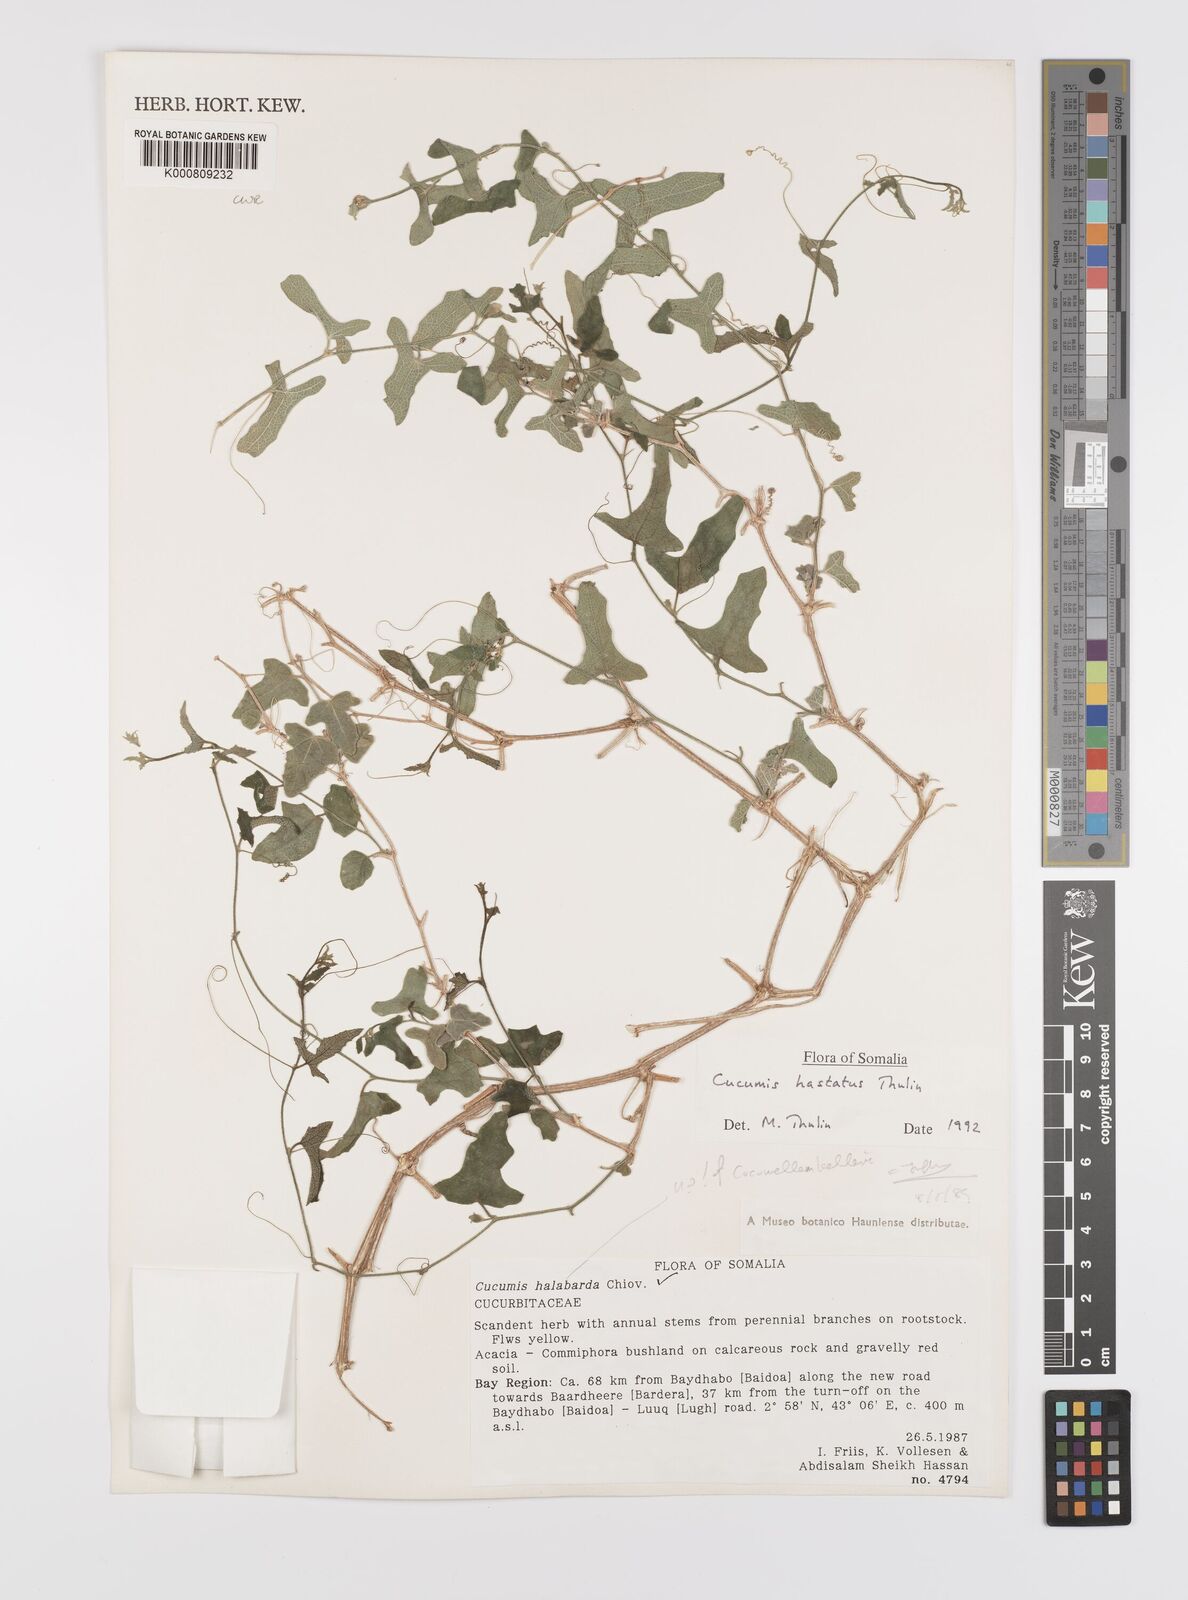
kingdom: Plantae
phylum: Tracheophyta
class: Magnoliopsida
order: Cucurbitales
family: Cucurbitaceae
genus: Cucumis
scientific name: Cucumis hastatus
